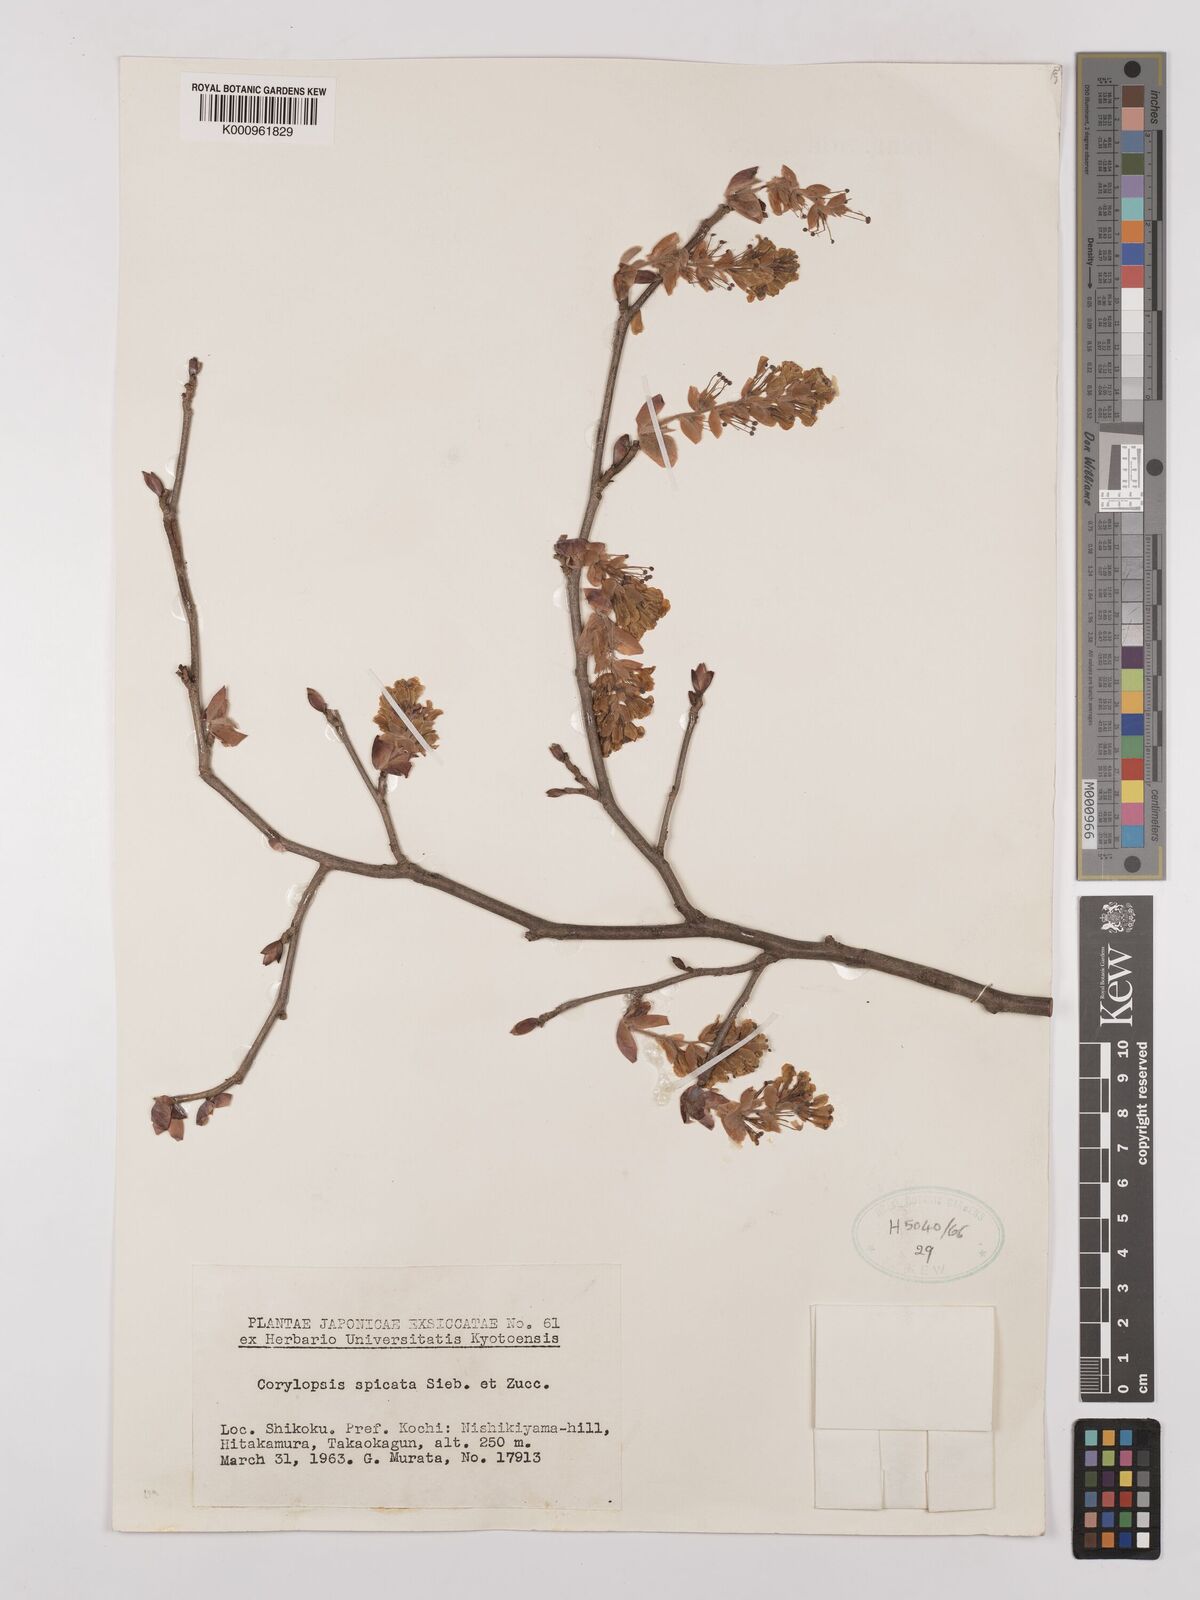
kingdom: Plantae
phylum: Tracheophyta
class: Magnoliopsida
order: Saxifragales
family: Hamamelidaceae
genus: Corylopsis
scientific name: Corylopsis spicata
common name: Spike winter-hazel
